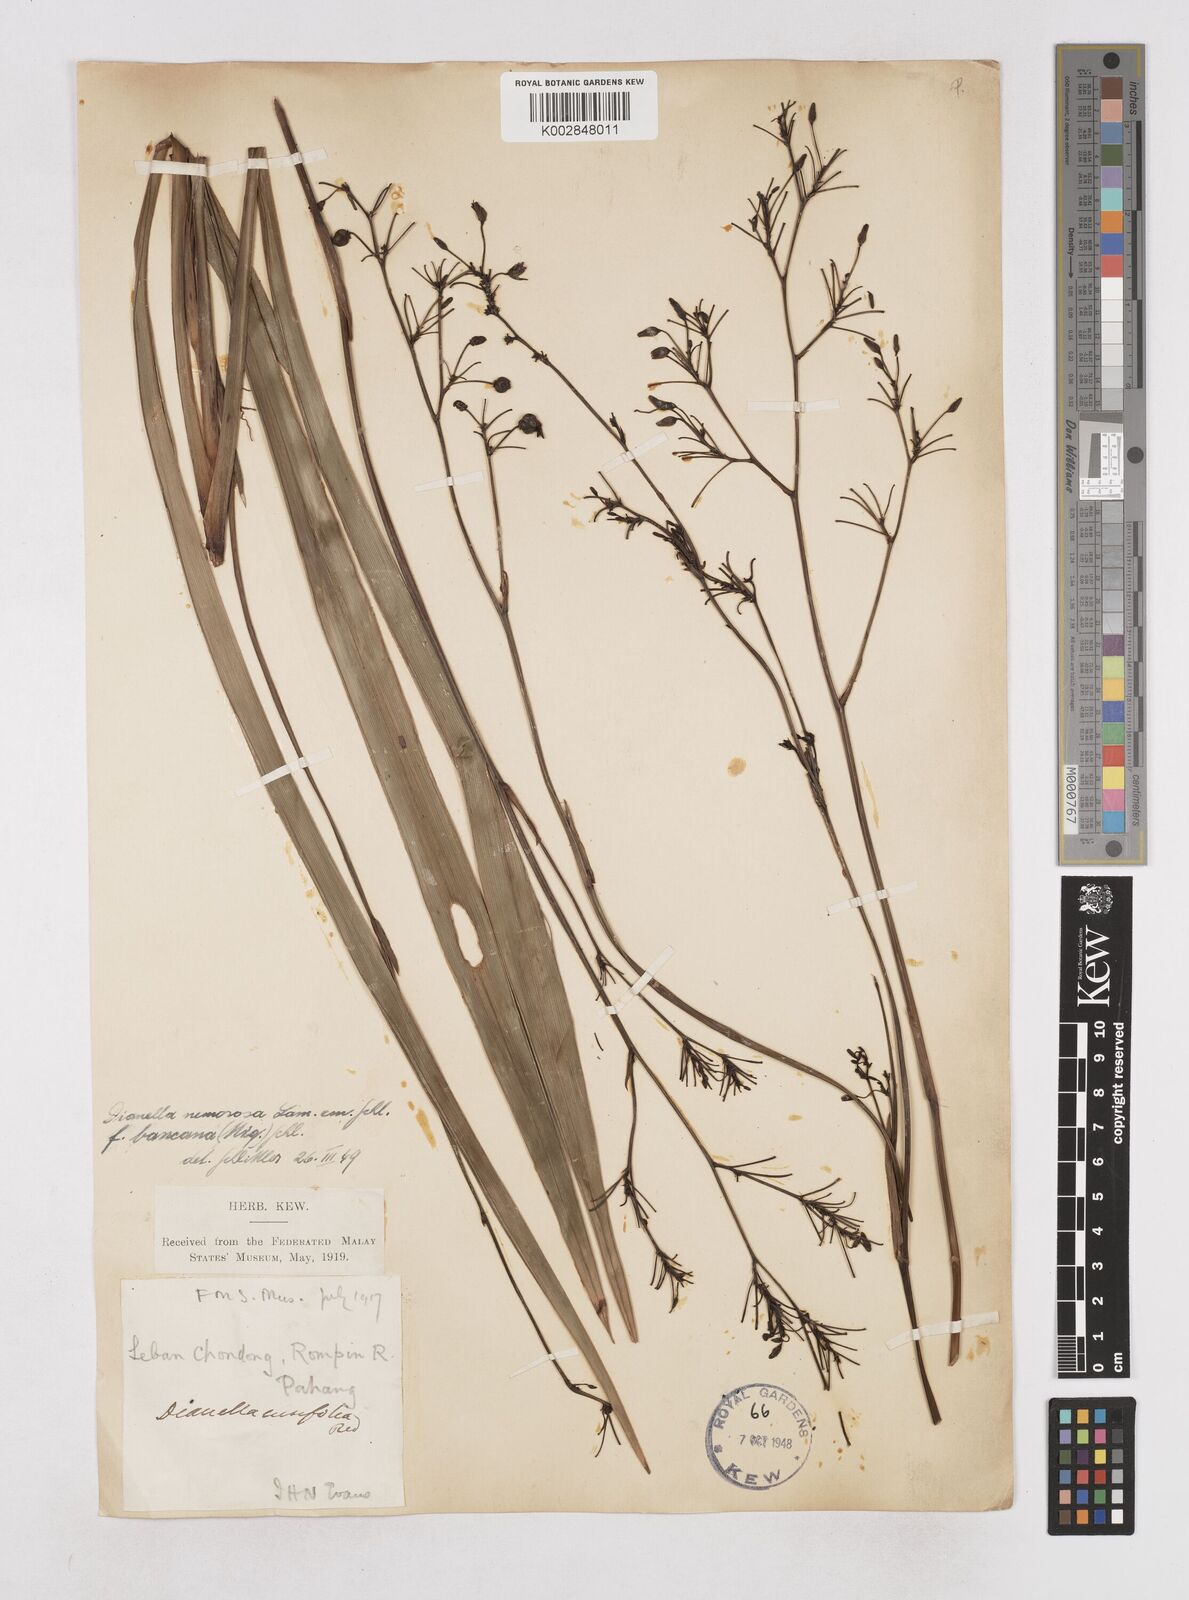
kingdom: Plantae
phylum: Tracheophyta
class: Liliopsida
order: Asparagales
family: Asphodelaceae
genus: Dianella
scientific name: Dianella ensifolia
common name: New zealand lilyplant
